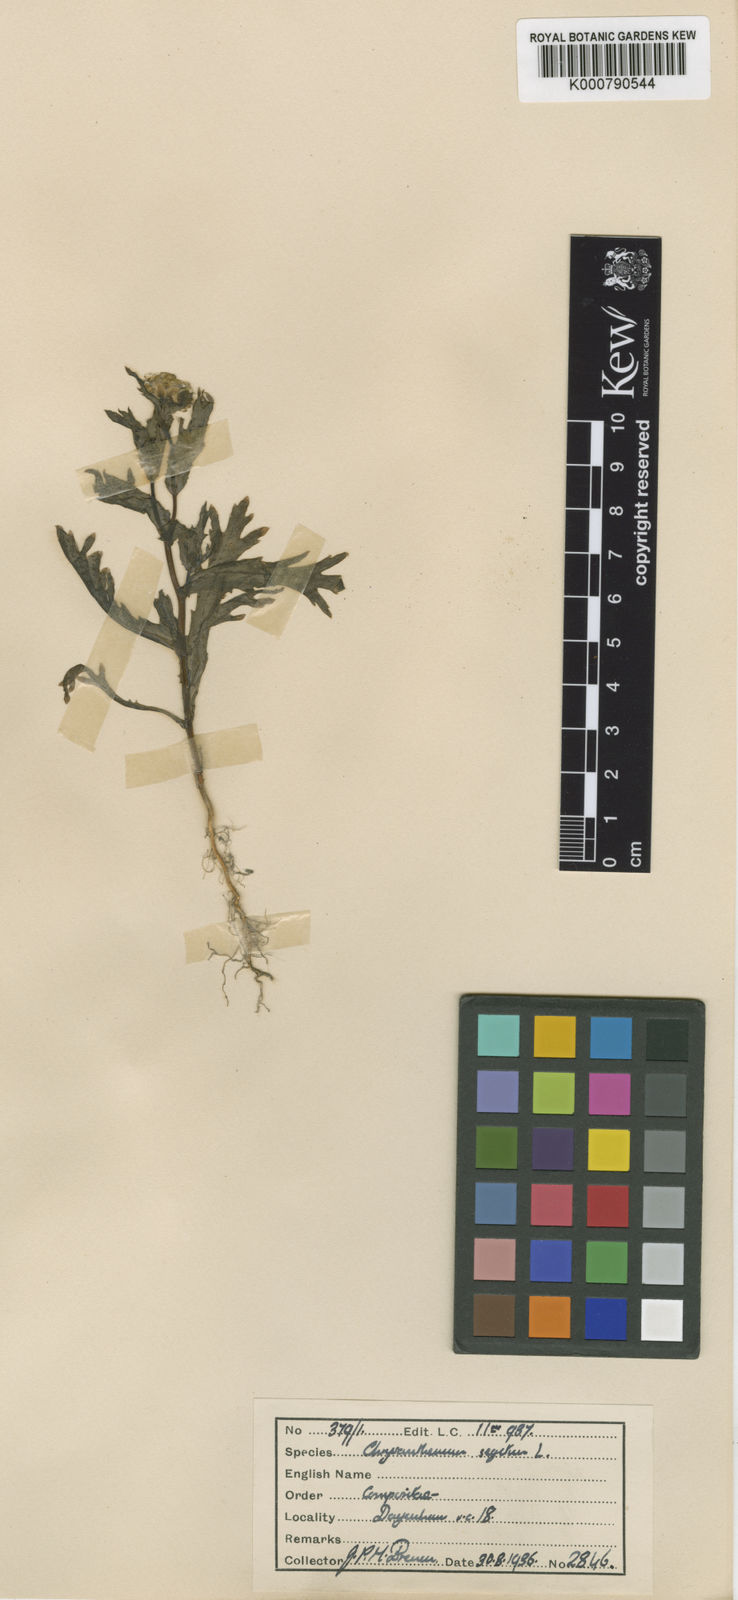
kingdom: Plantae
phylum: Tracheophyta
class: Magnoliopsida
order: Asterales
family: Asteraceae
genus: Glebionis
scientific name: Glebionis
